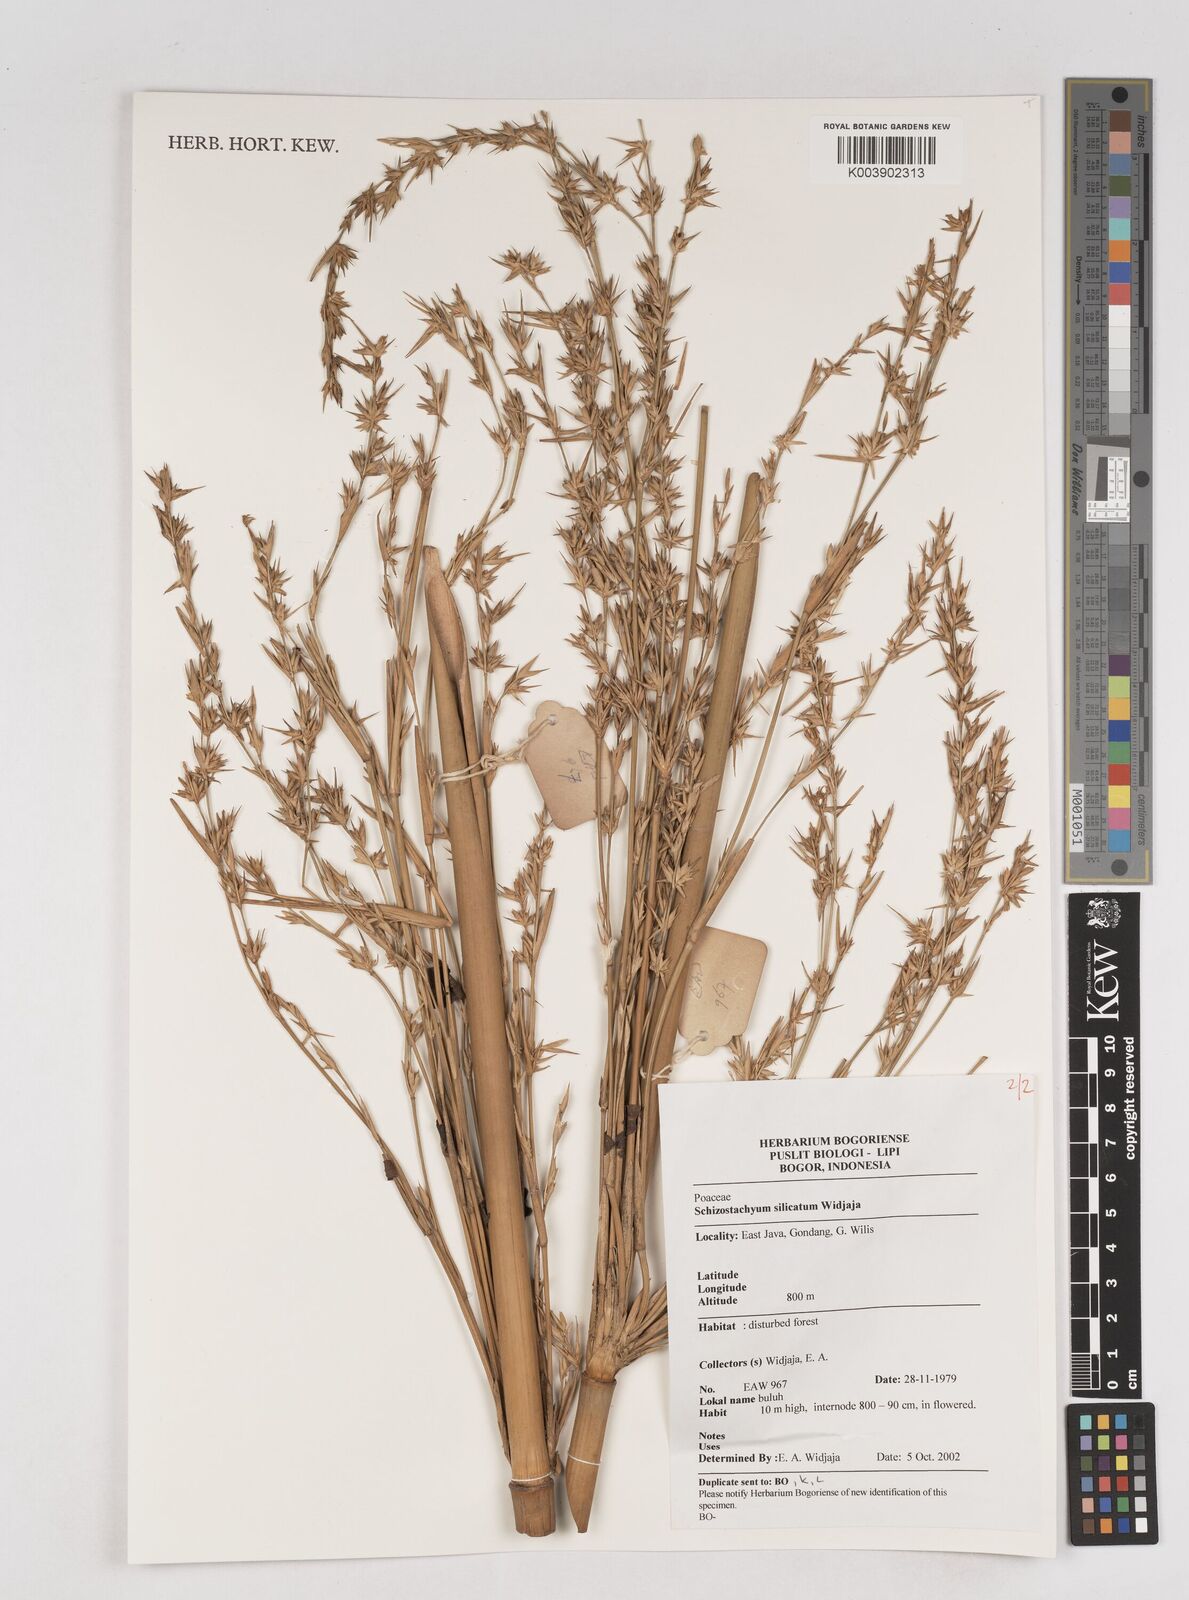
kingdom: Plantae
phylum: Tracheophyta
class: Liliopsida
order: Poales
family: Poaceae
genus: Schizostachyum
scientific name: Schizostachyum silicatum
